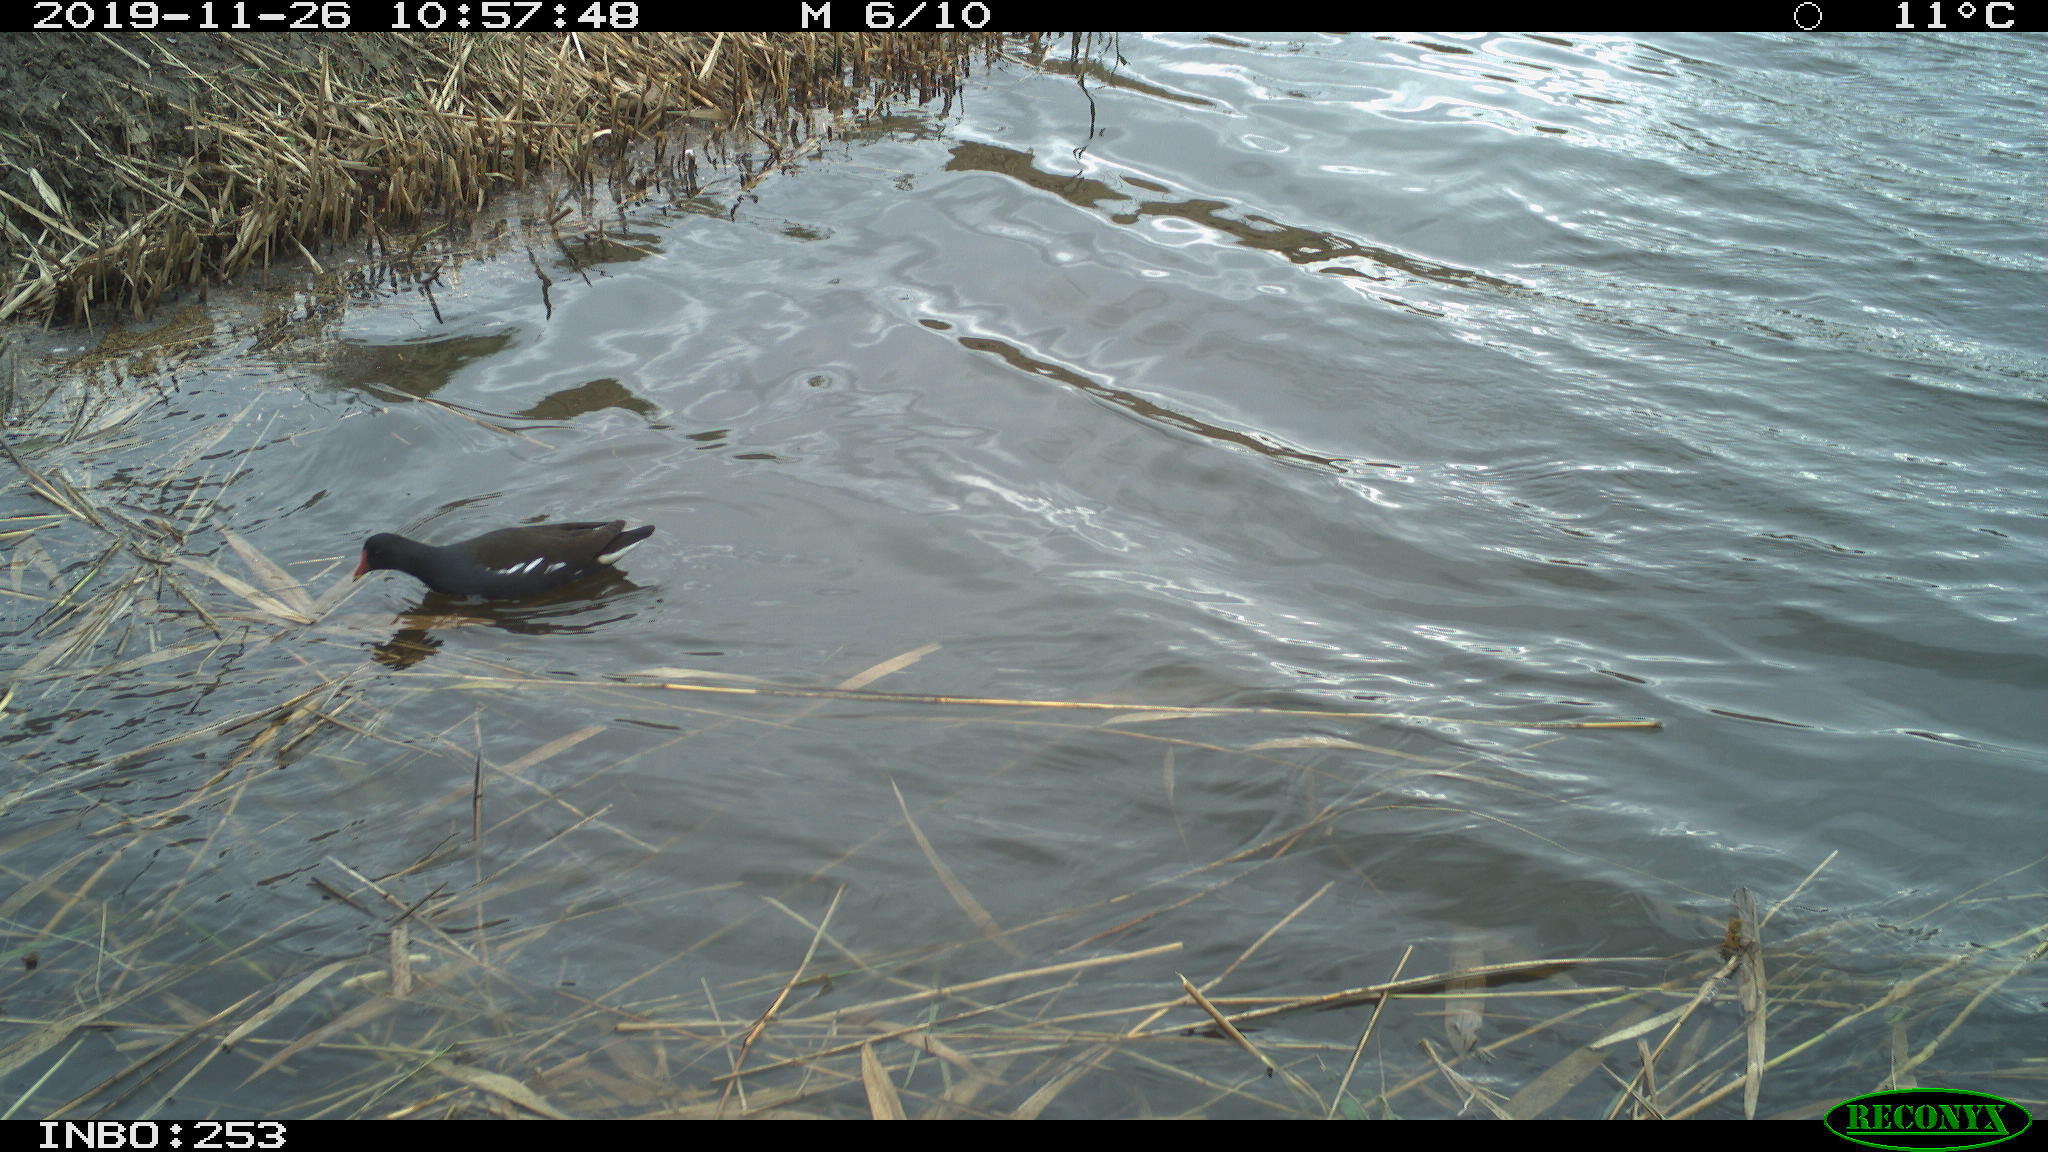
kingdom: Animalia
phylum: Chordata
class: Aves
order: Gruiformes
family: Rallidae
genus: Gallinula
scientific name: Gallinula chloropus
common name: Common moorhen
